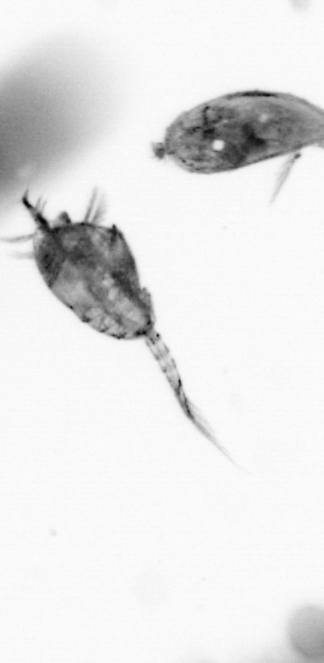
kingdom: Animalia
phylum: Arthropoda
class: Copepoda
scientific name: Copepoda
